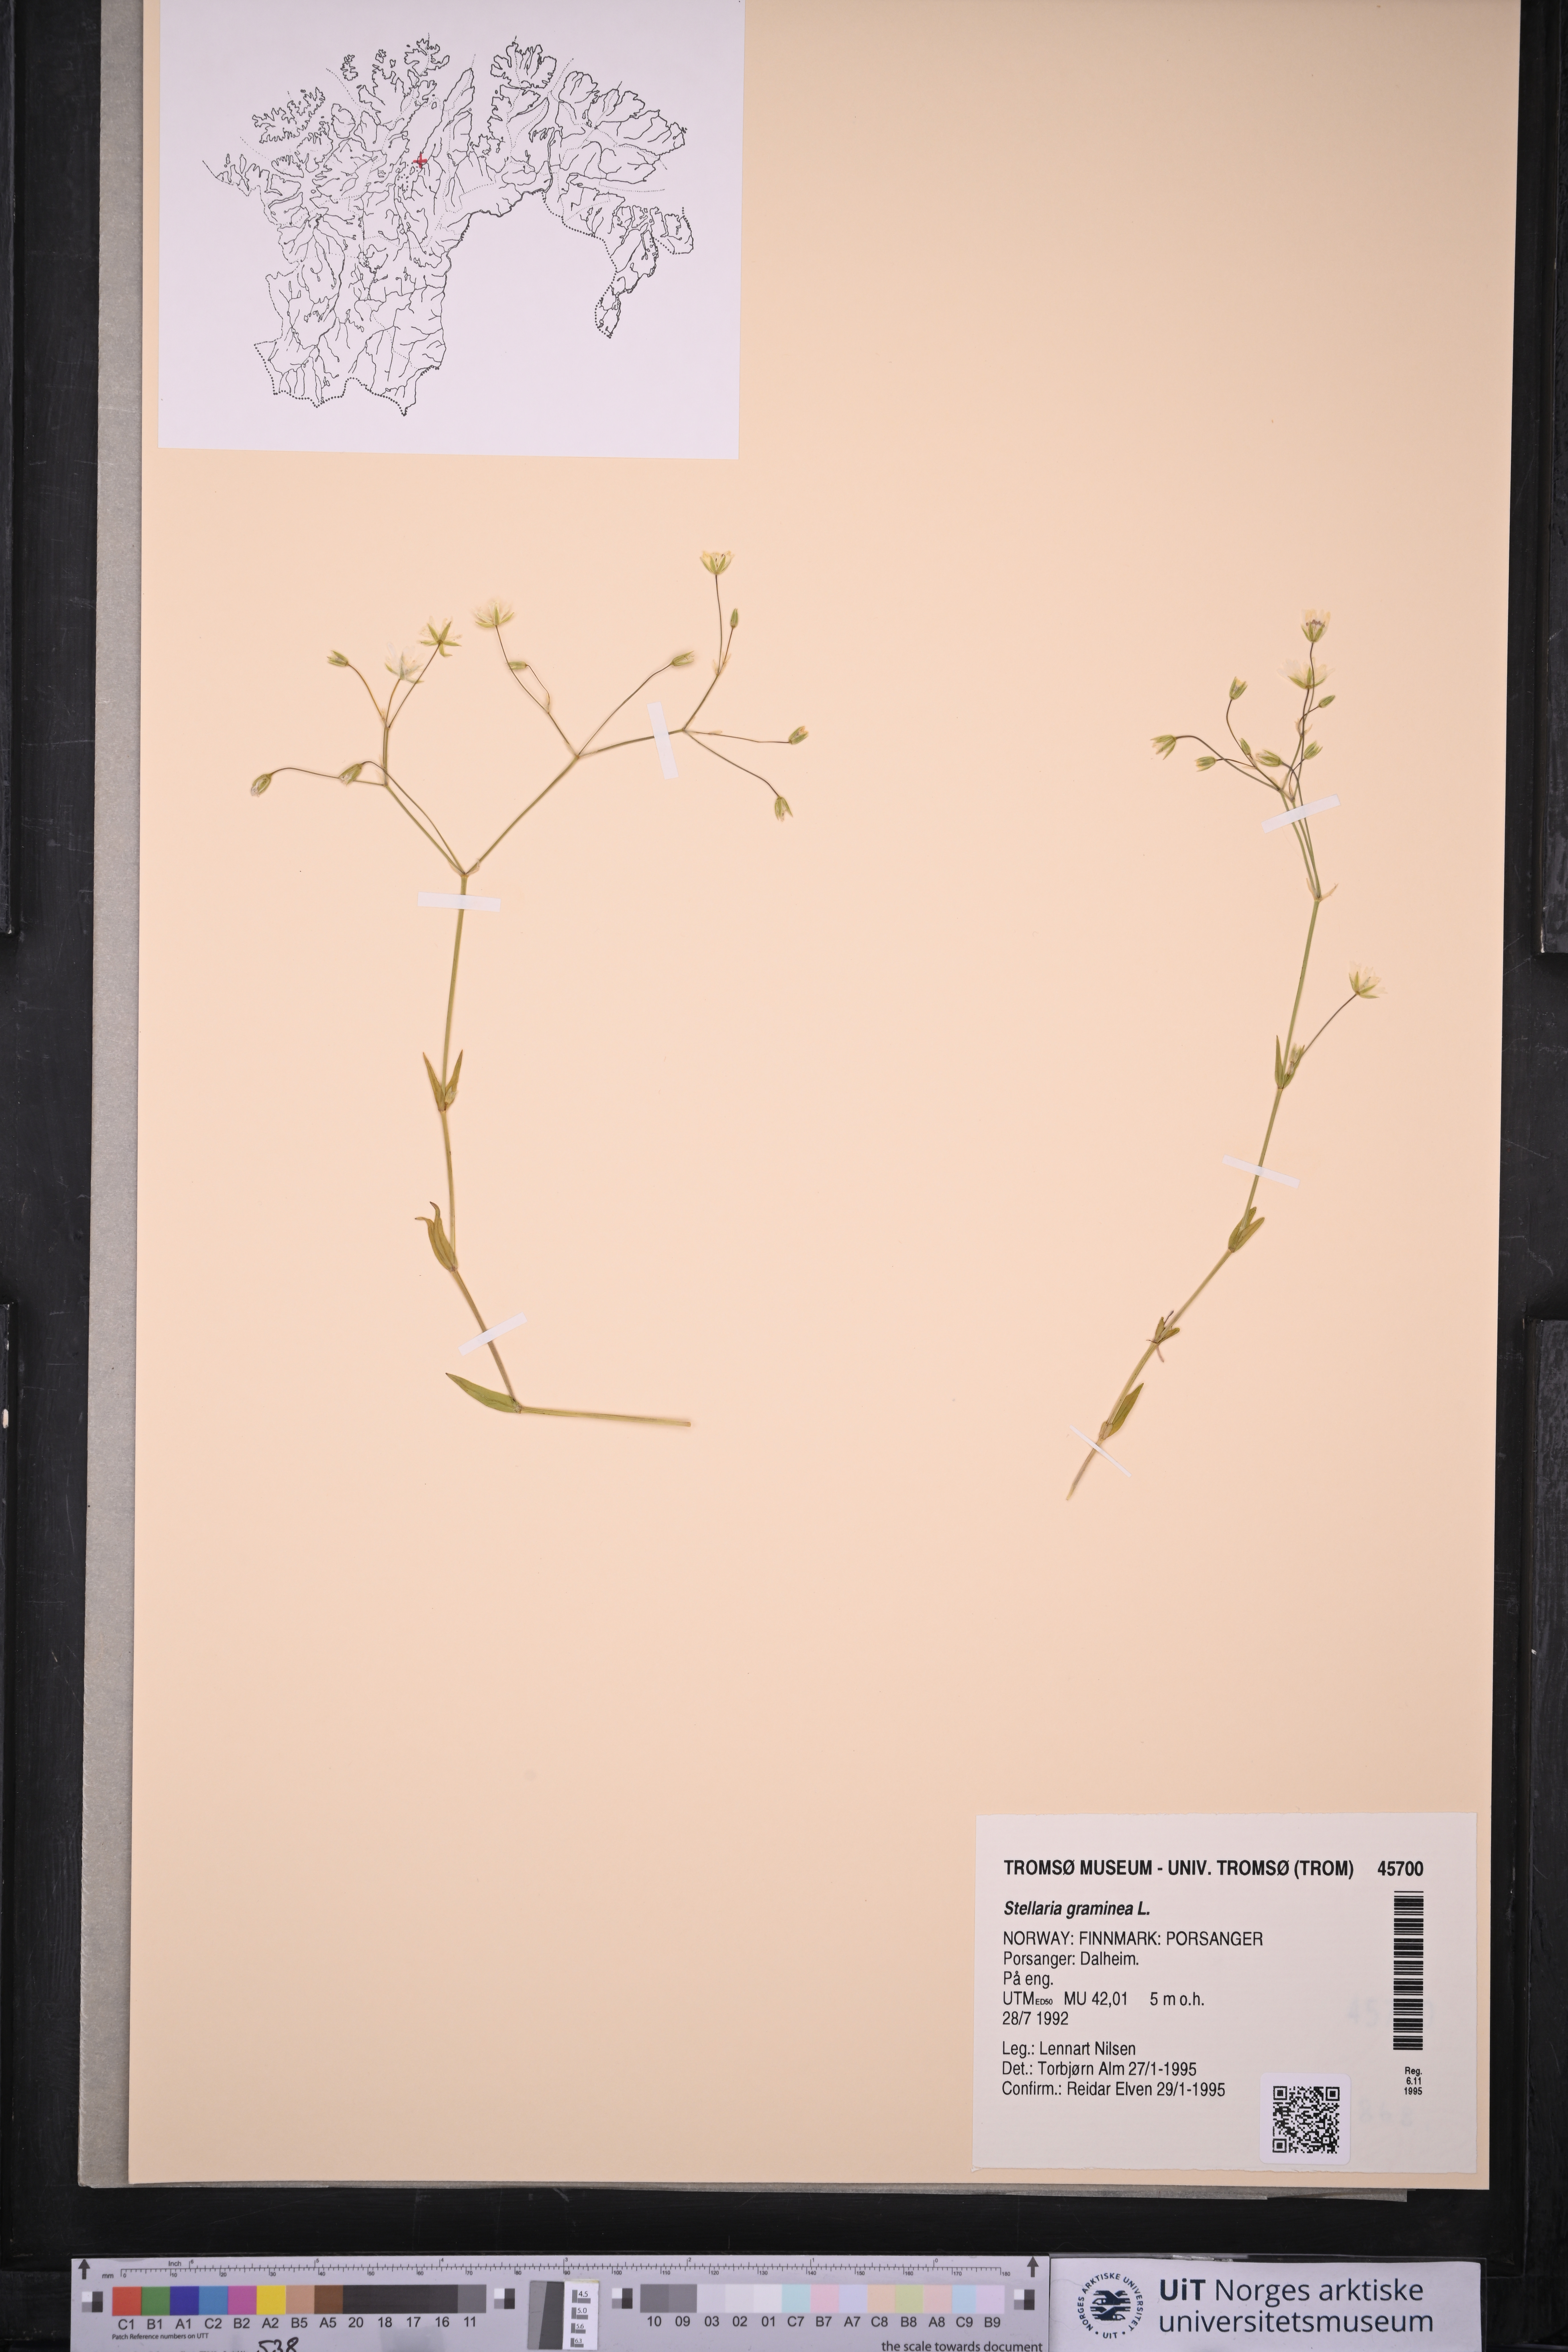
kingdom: Plantae
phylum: Tracheophyta
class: Magnoliopsida
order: Caryophyllales
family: Caryophyllaceae
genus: Stellaria
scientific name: Stellaria graminea
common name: Grass-like starwort
